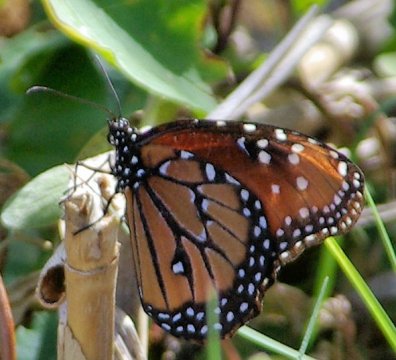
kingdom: Animalia
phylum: Arthropoda
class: Insecta
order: Lepidoptera
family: Nymphalidae
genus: Danaus
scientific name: Danaus gilippus
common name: Queen
